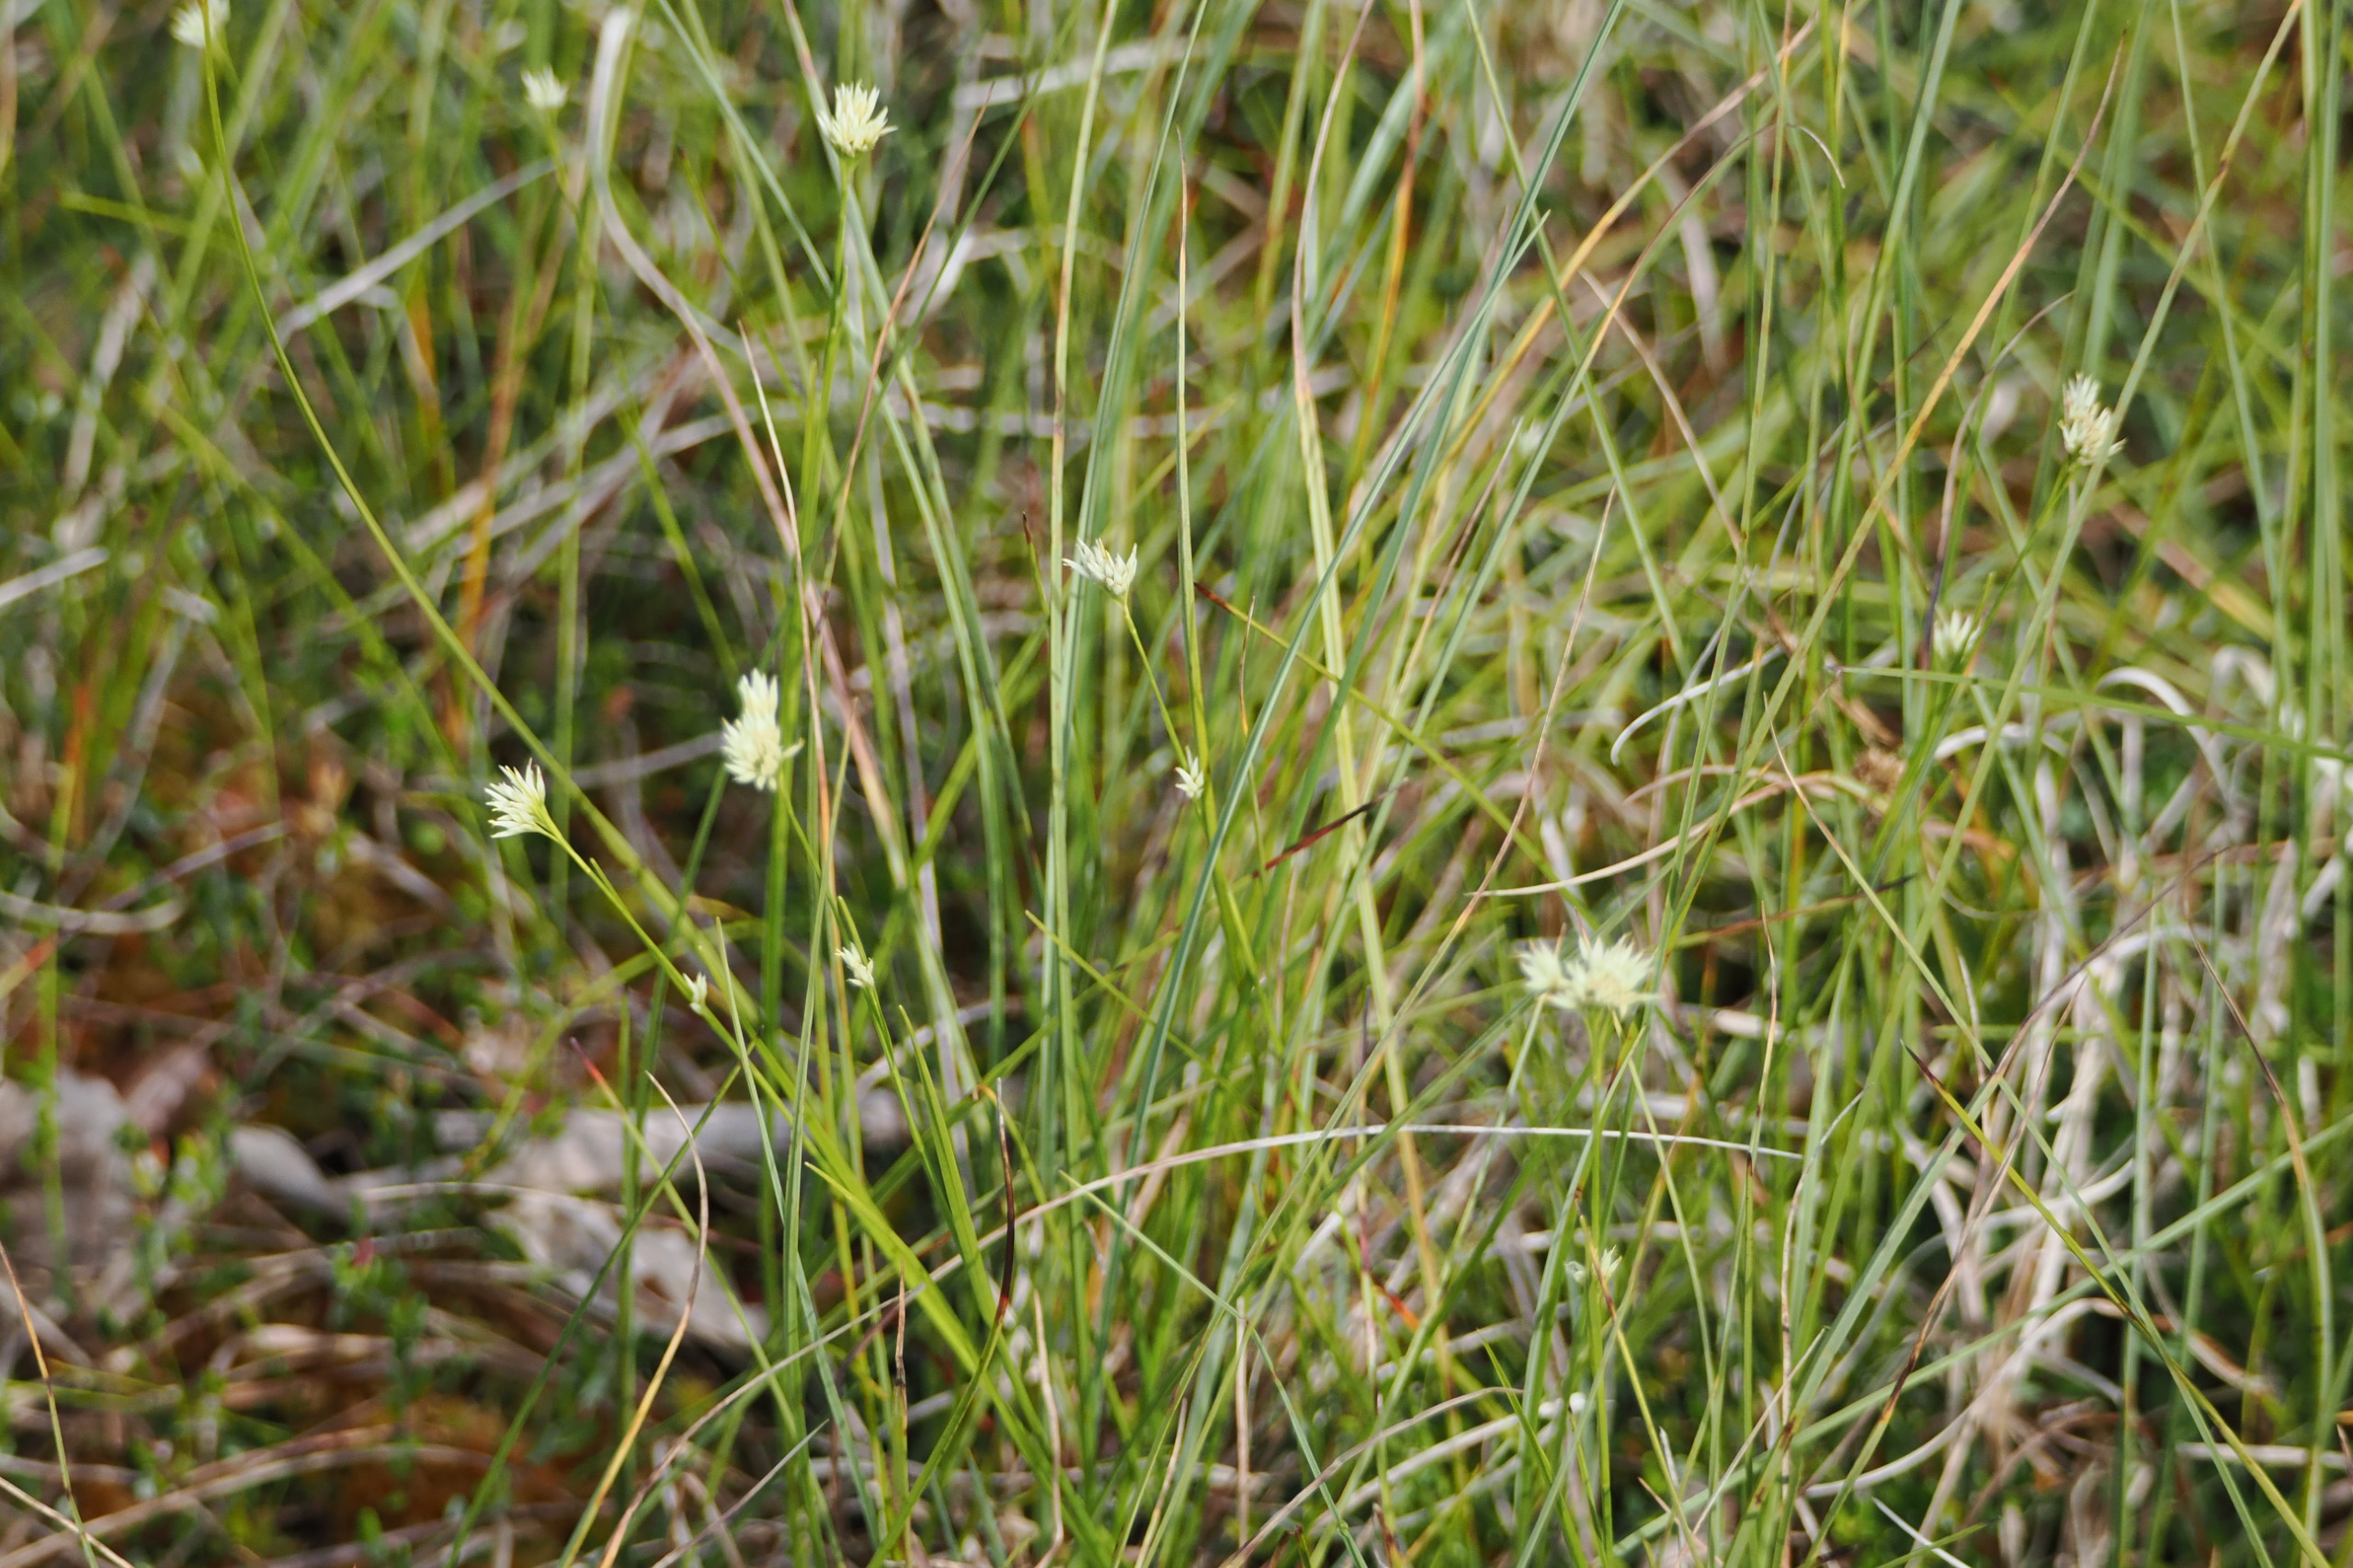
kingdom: Plantae
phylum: Tracheophyta
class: Liliopsida
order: Poales
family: Cyperaceae
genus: Rhynchospora
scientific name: Rhynchospora alba
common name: Hvid næbfrø
